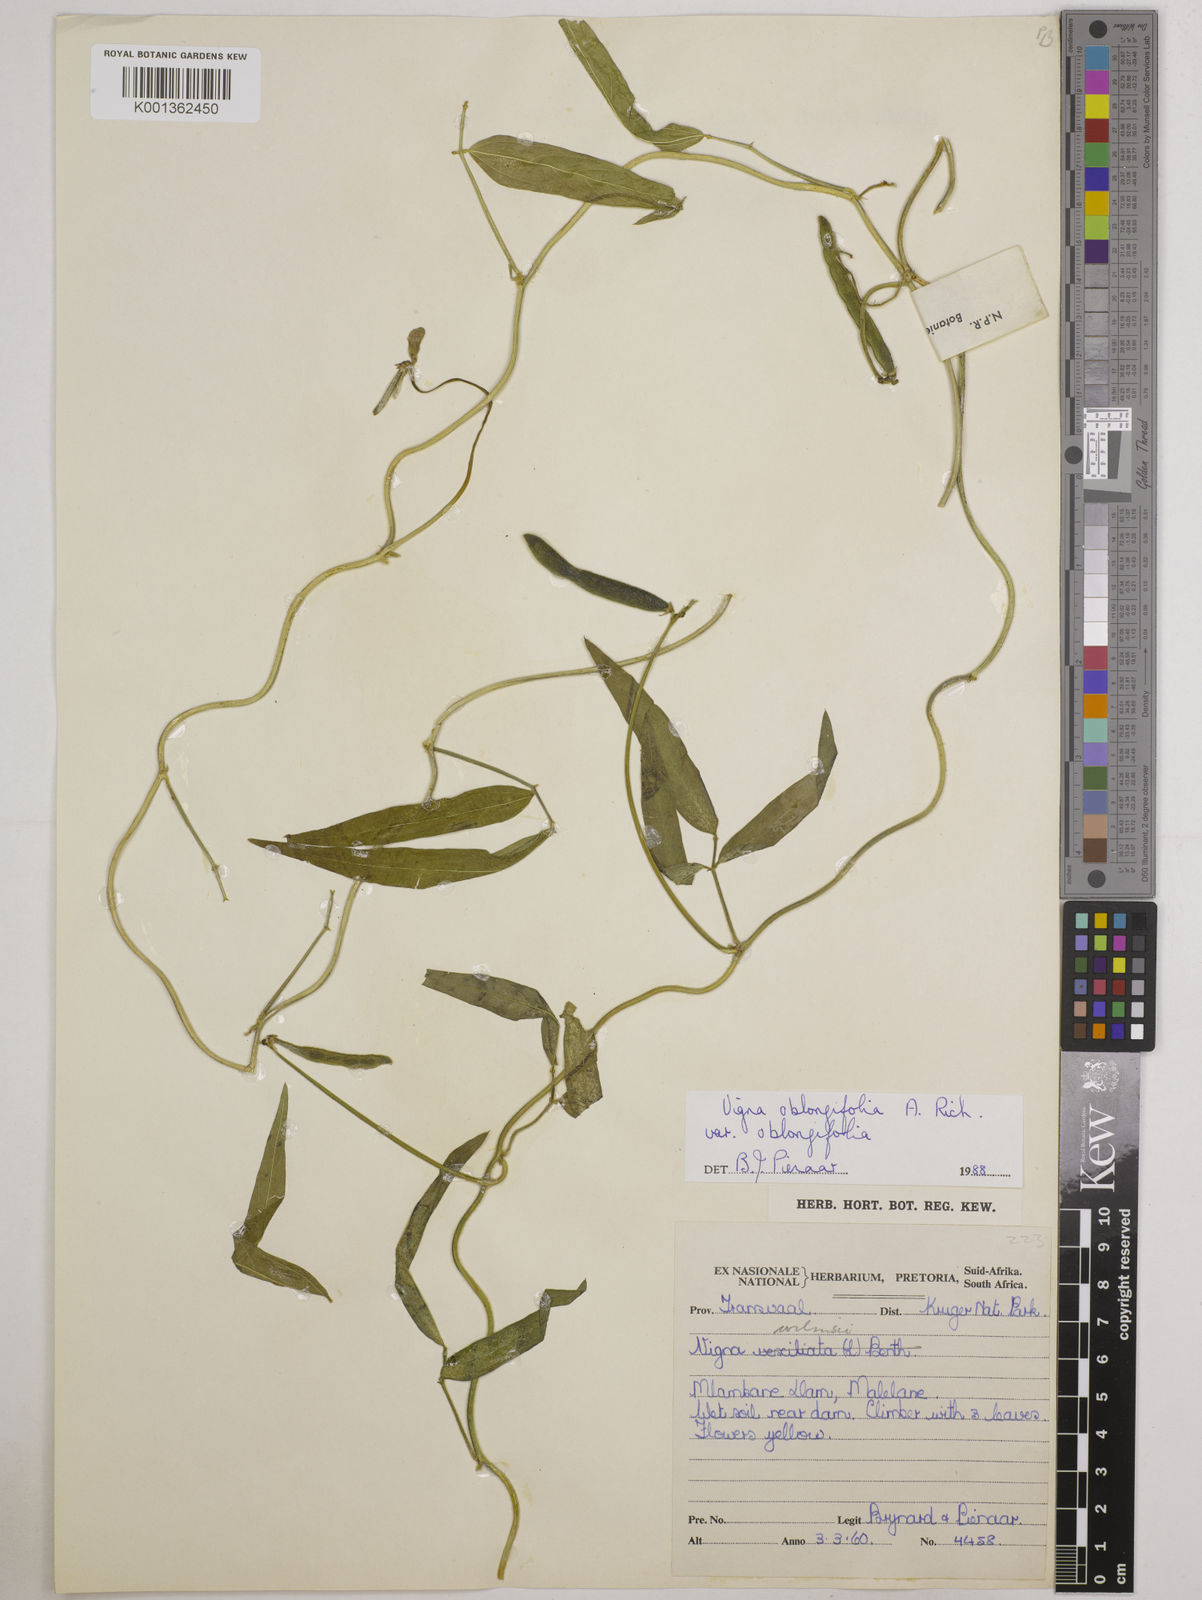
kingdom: Plantae
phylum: Tracheophyta
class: Magnoliopsida
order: Fabales
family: Fabaceae
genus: Vigna
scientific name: Vigna oblongifolia
